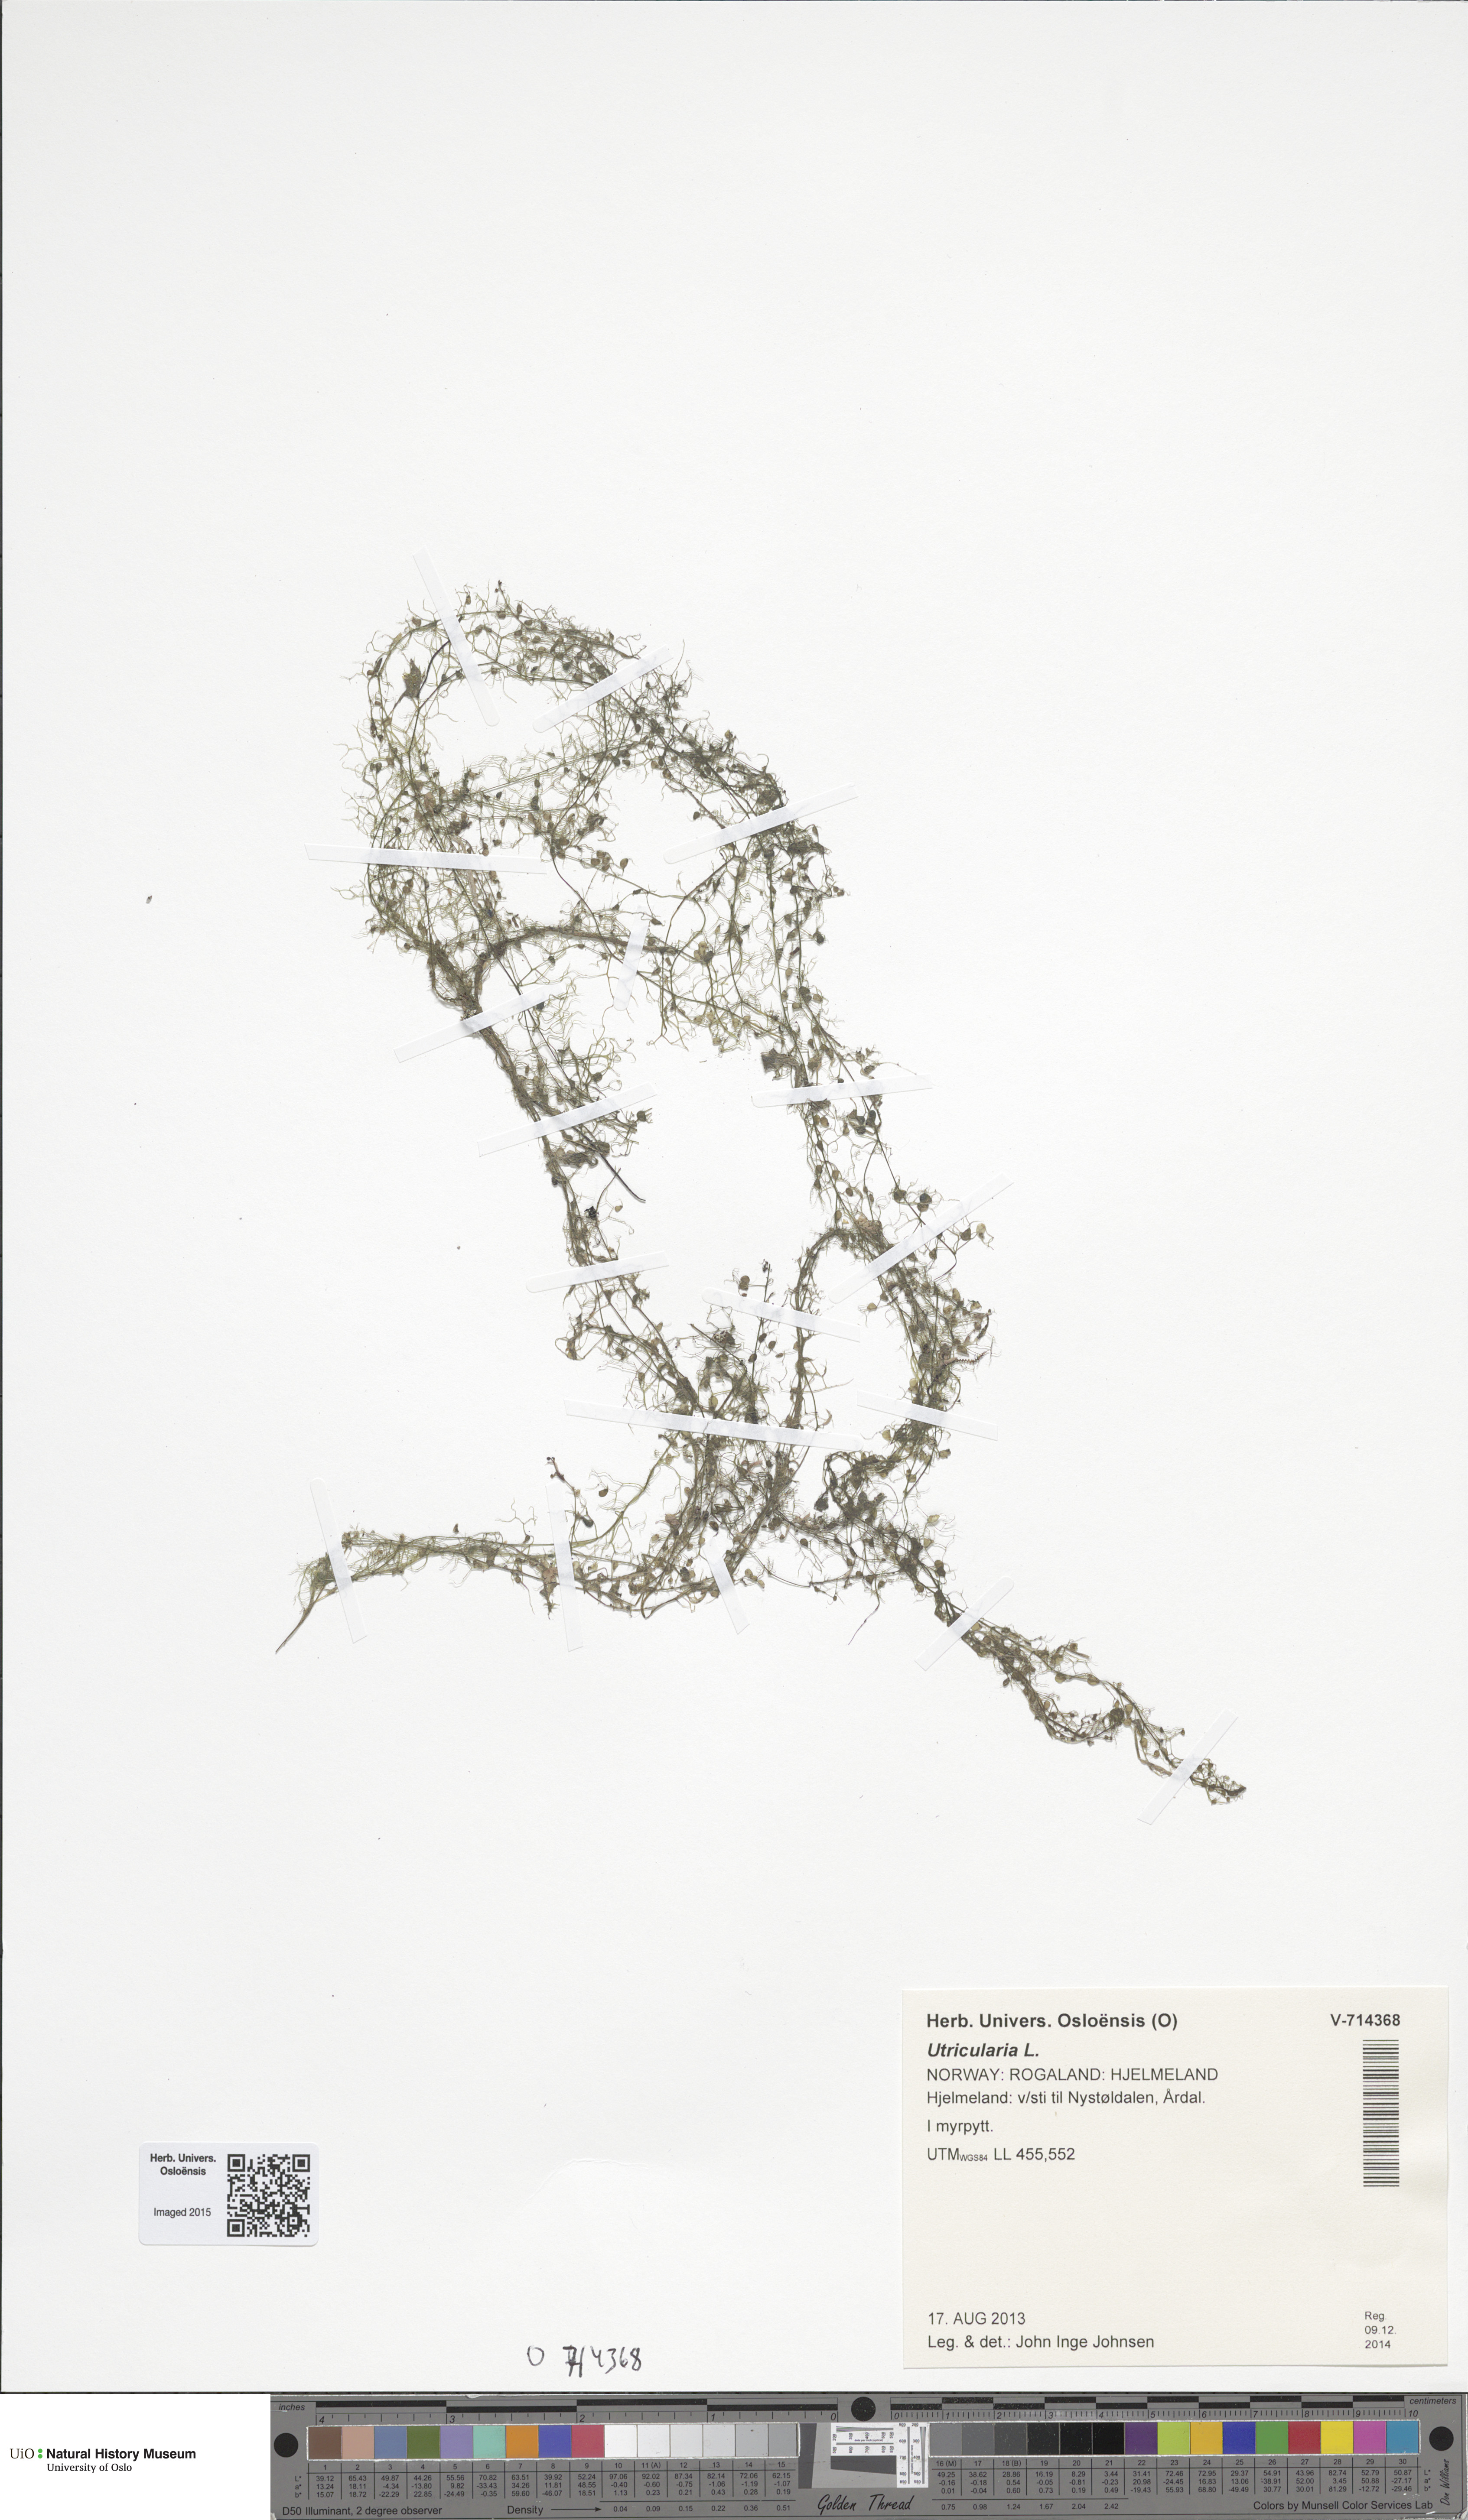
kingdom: Plantae
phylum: Tracheophyta
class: Magnoliopsida
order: Lamiales
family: Lentibulariaceae
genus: Utricularia
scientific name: Utricularia minor
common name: Lesser bladderwort
